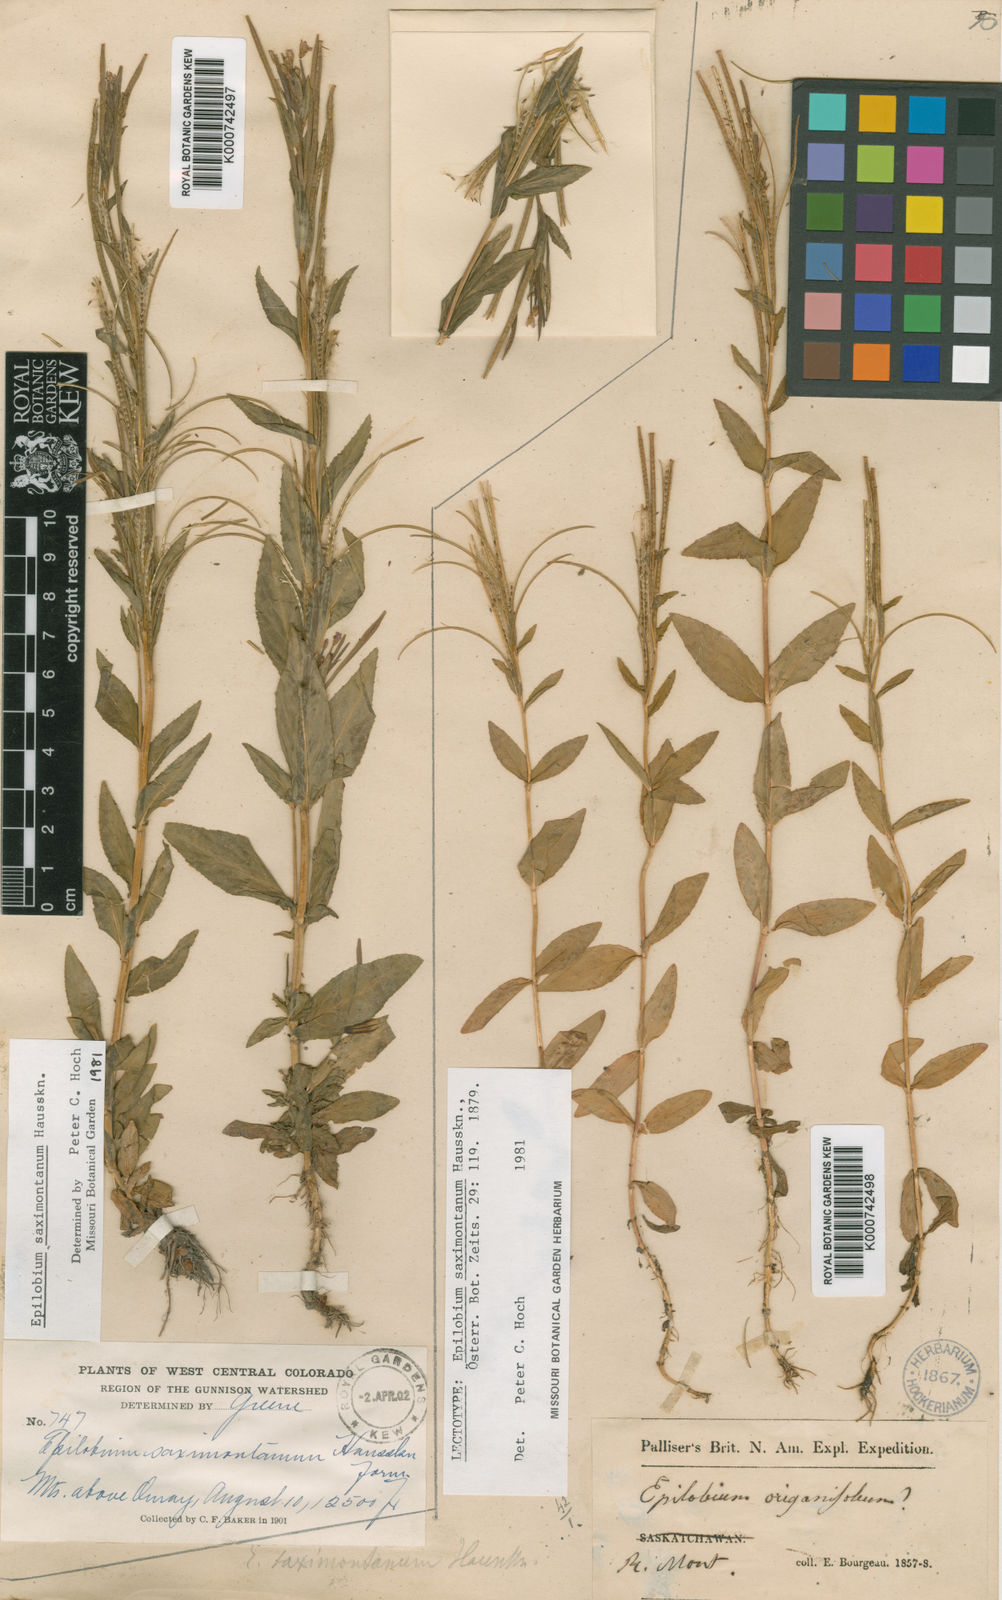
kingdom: Plantae
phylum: Tracheophyta
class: Magnoliopsida
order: Myrtales
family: Onagraceae
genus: Epilobium
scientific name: Epilobium saximontanum
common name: Rocky mountain willowherb
